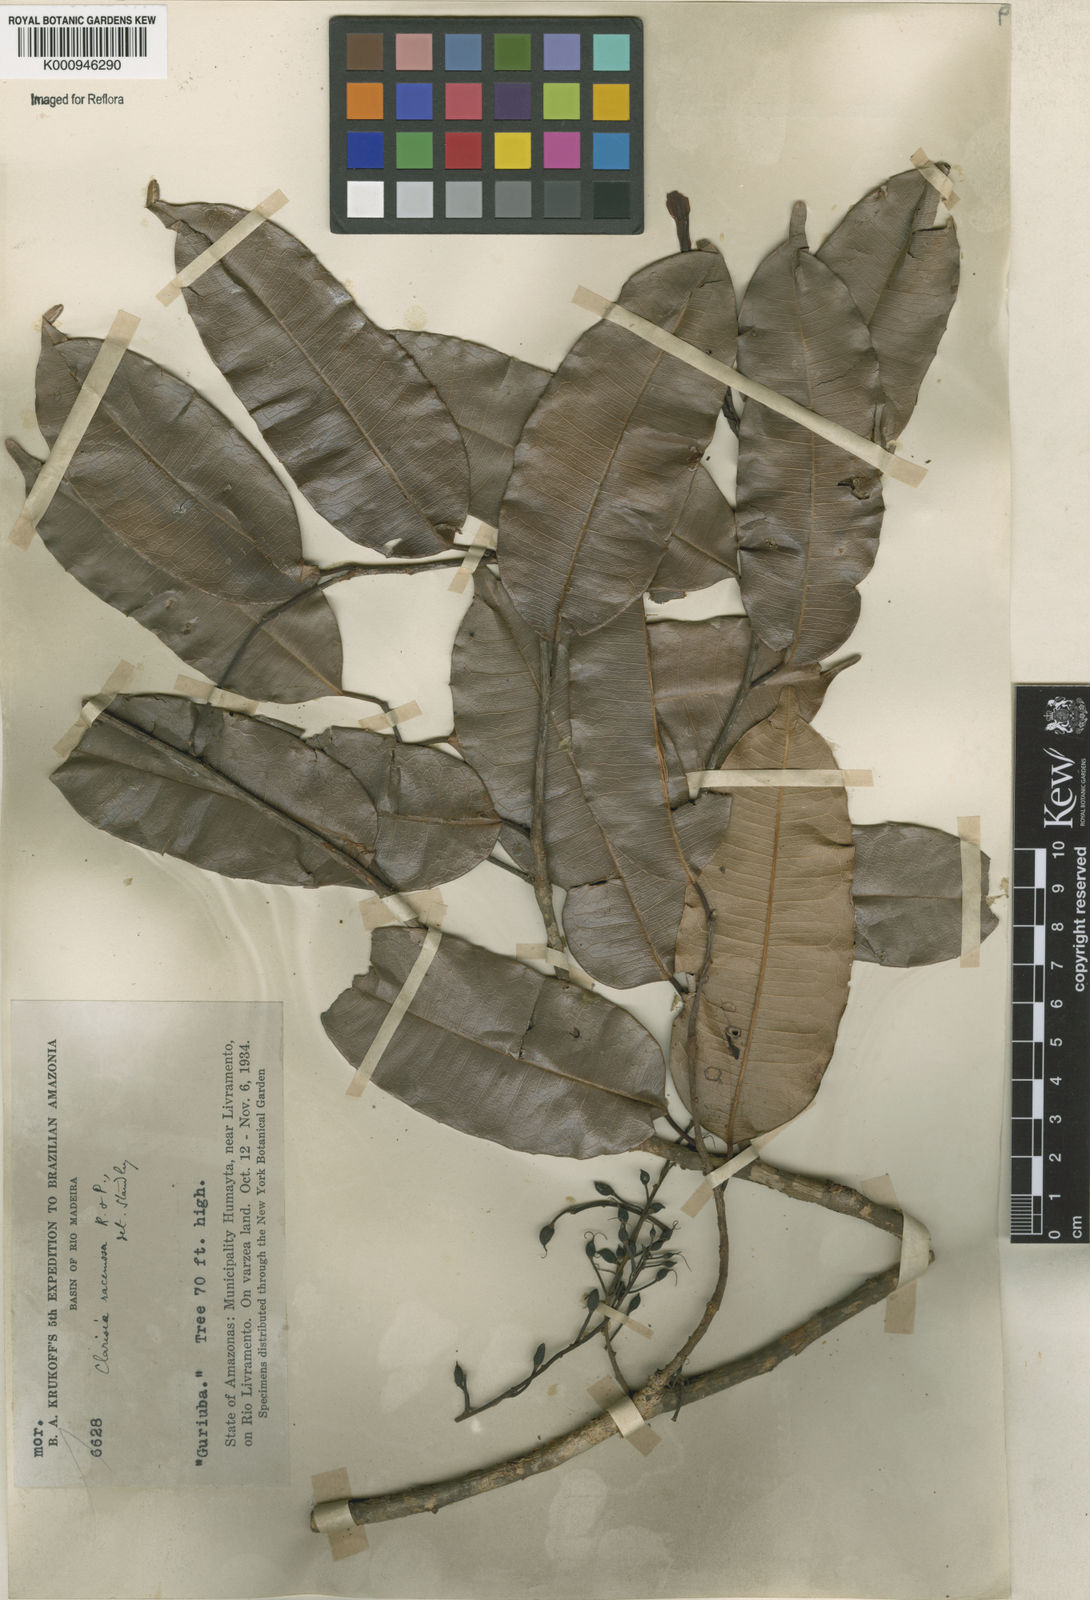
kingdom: Plantae
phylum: Tracheophyta
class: Magnoliopsida
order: Rosales
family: Moraceae
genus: Clarisia
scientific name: Clarisia racemosa
